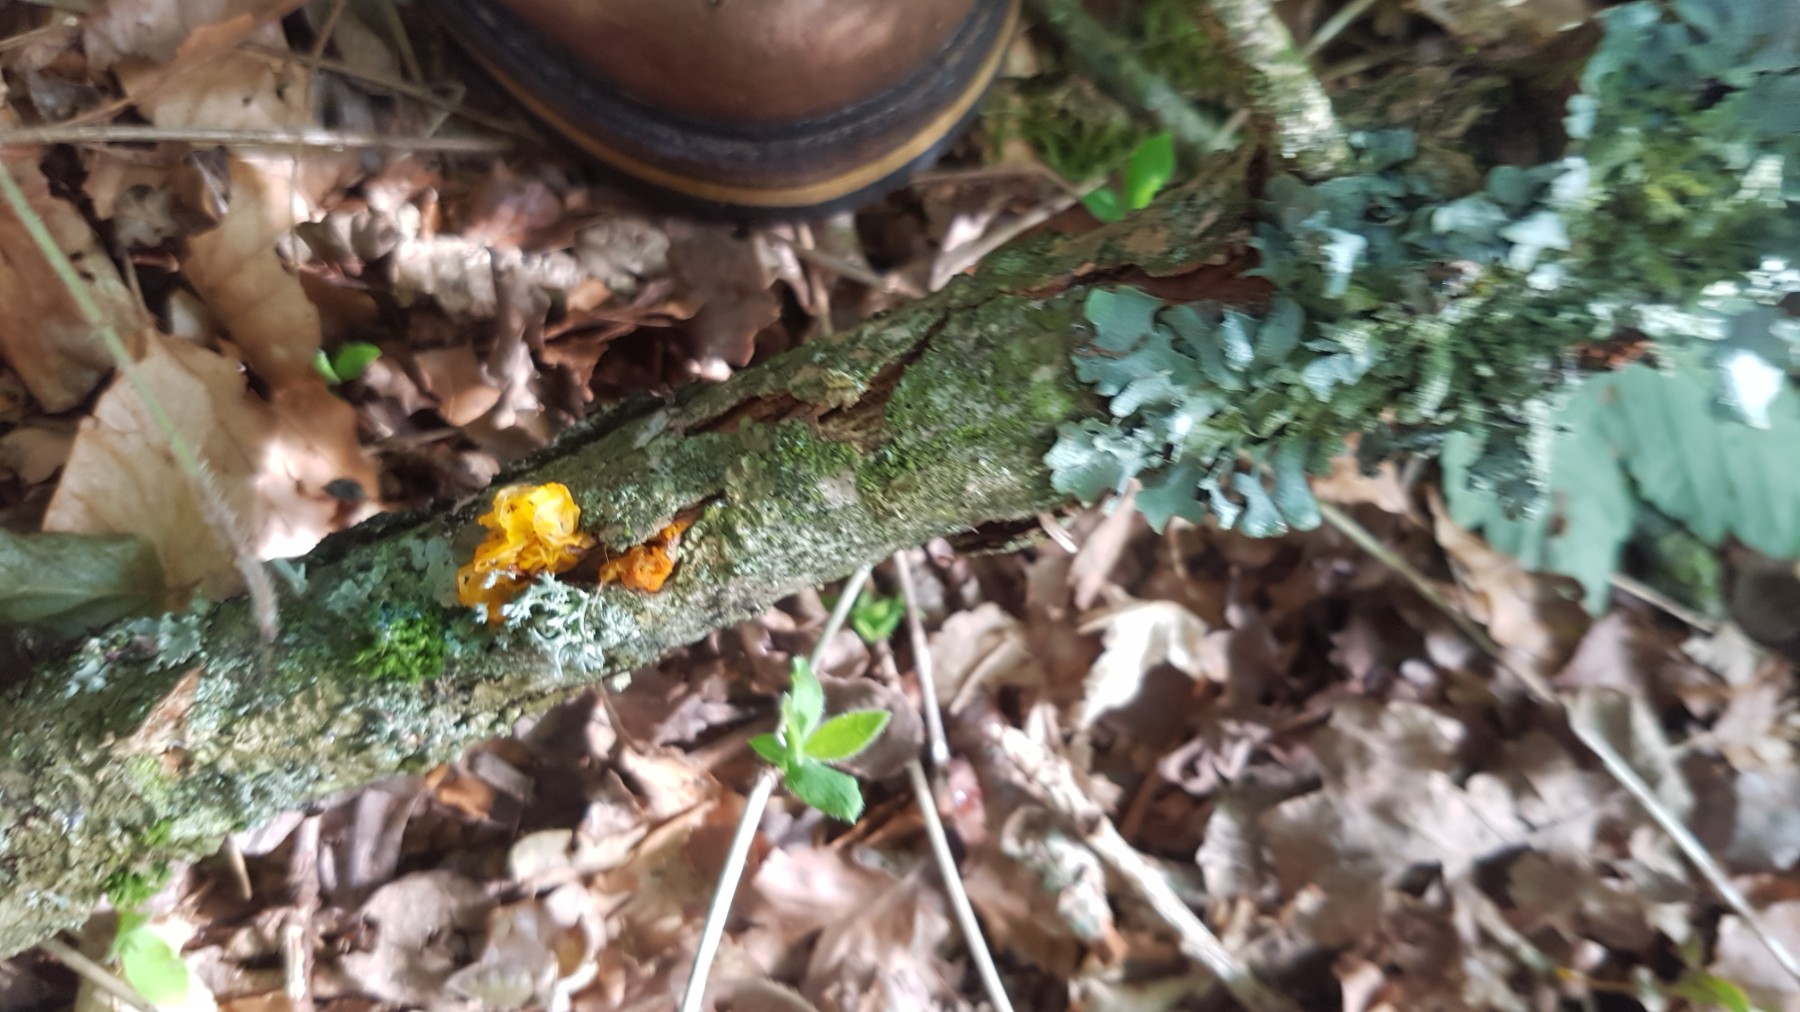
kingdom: Fungi
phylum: Basidiomycota
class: Tremellomycetes
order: Tremellales
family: Tremellaceae
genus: Tremella
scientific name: Tremella mesenterica
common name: gul bævresvamp
